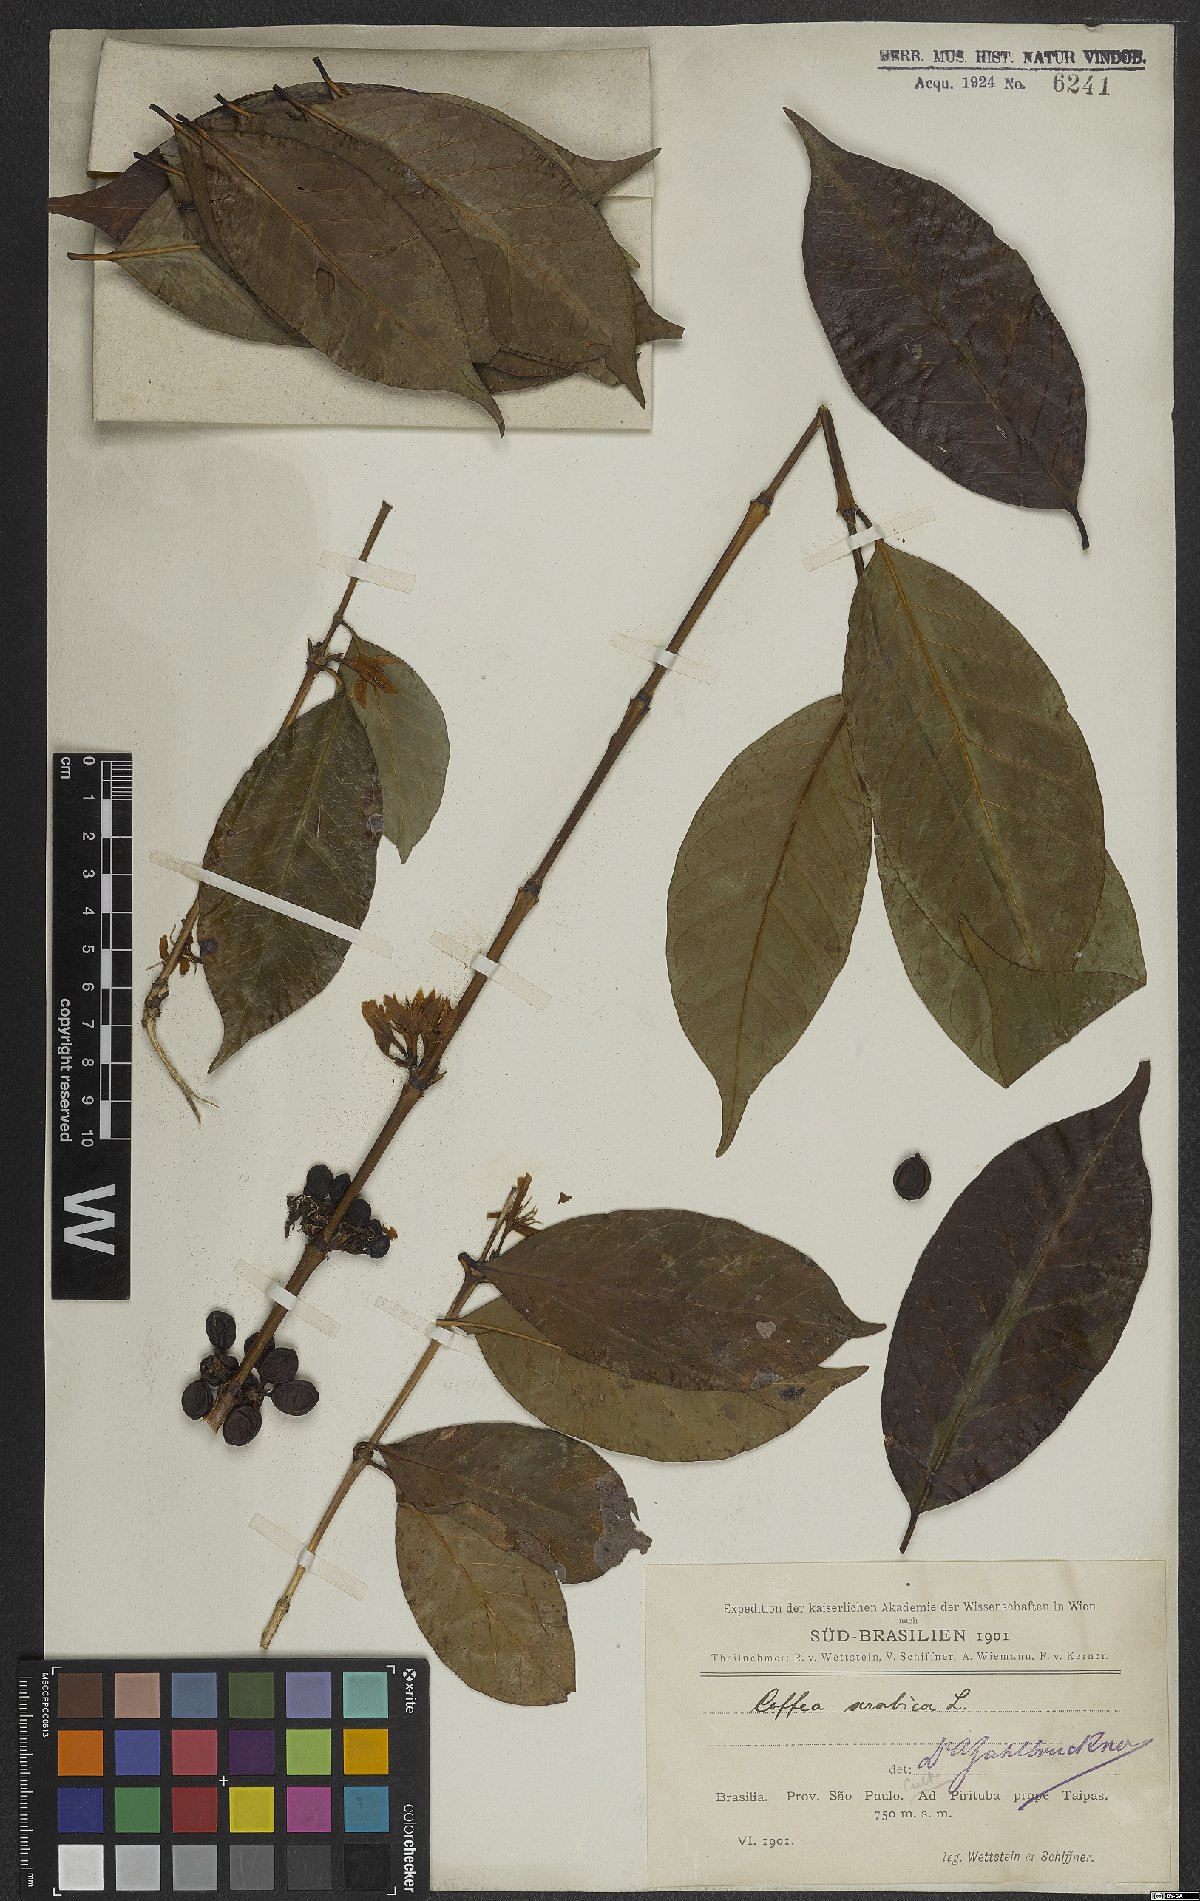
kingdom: Plantae
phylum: Tracheophyta
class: Magnoliopsida
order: Gentianales
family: Rubiaceae
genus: Coffea
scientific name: Coffea arabica
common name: Coffee
